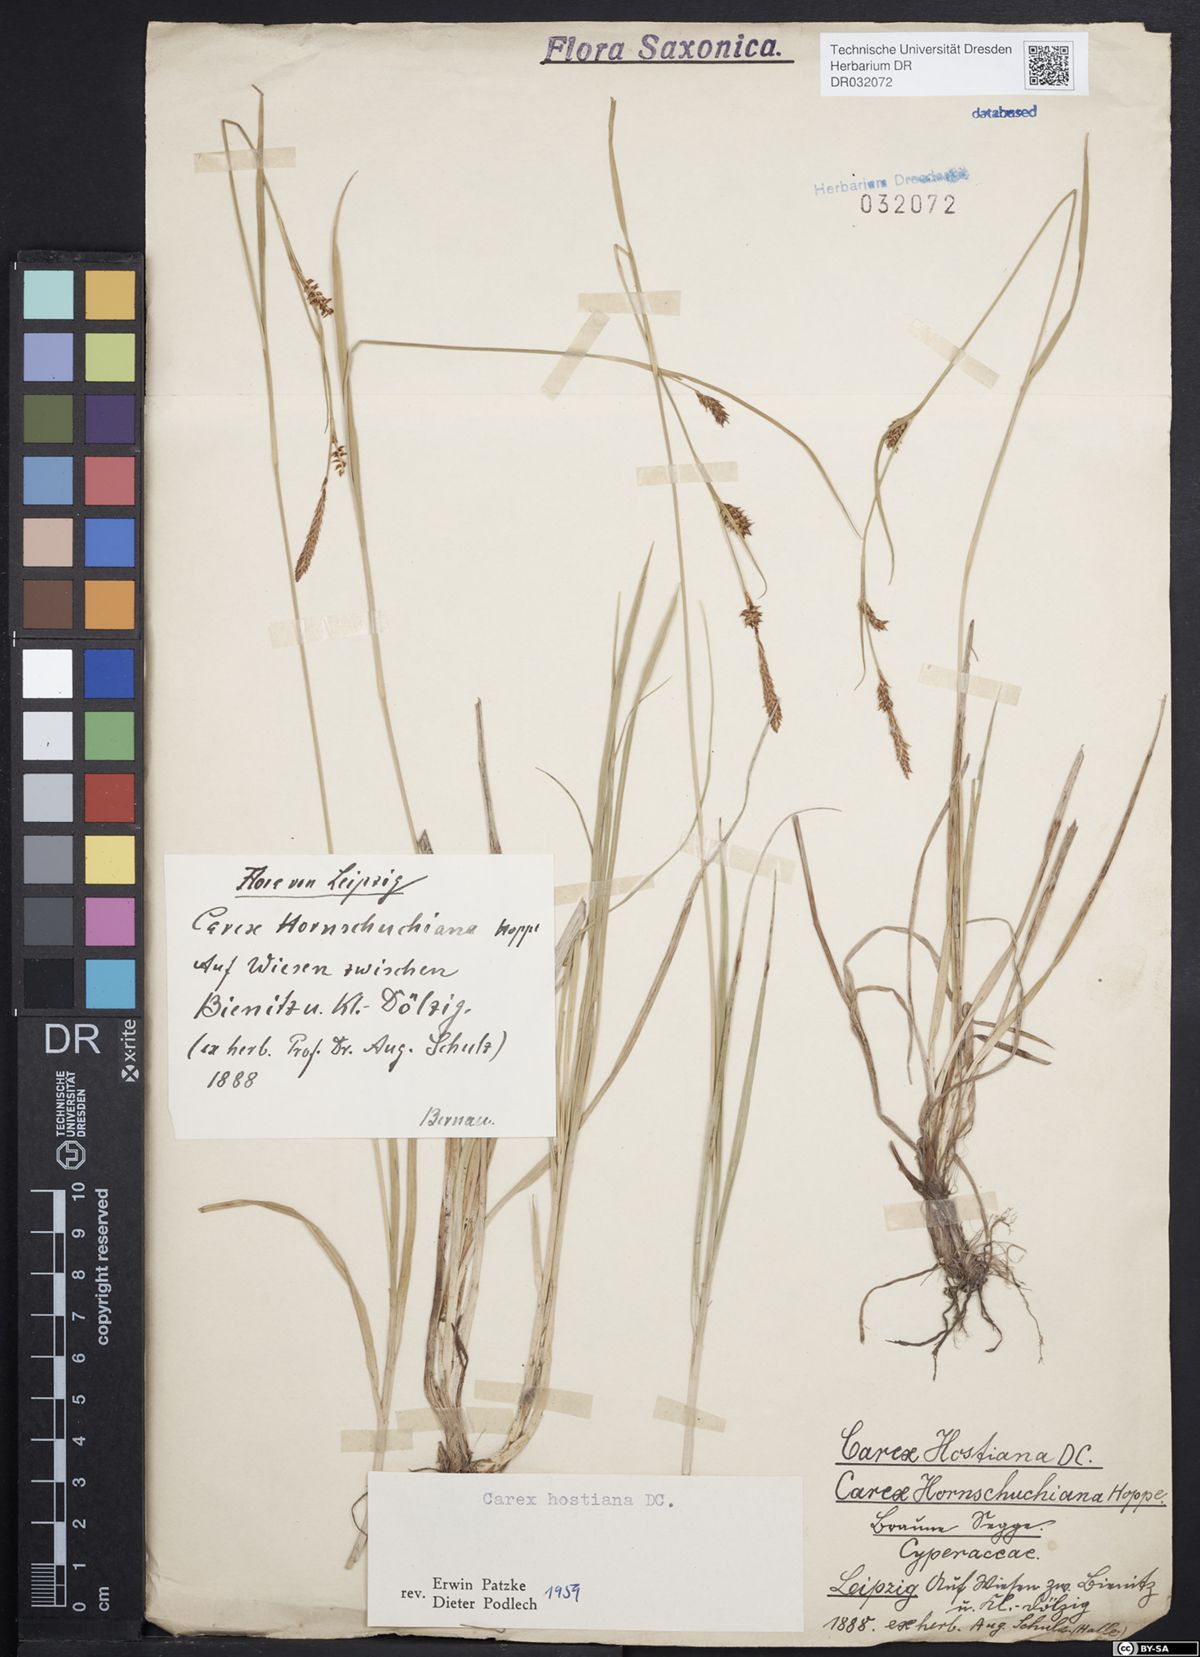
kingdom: Plantae
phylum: Tracheophyta
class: Liliopsida
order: Poales
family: Cyperaceae
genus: Carex
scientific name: Carex hostiana
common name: Tawny sedge
